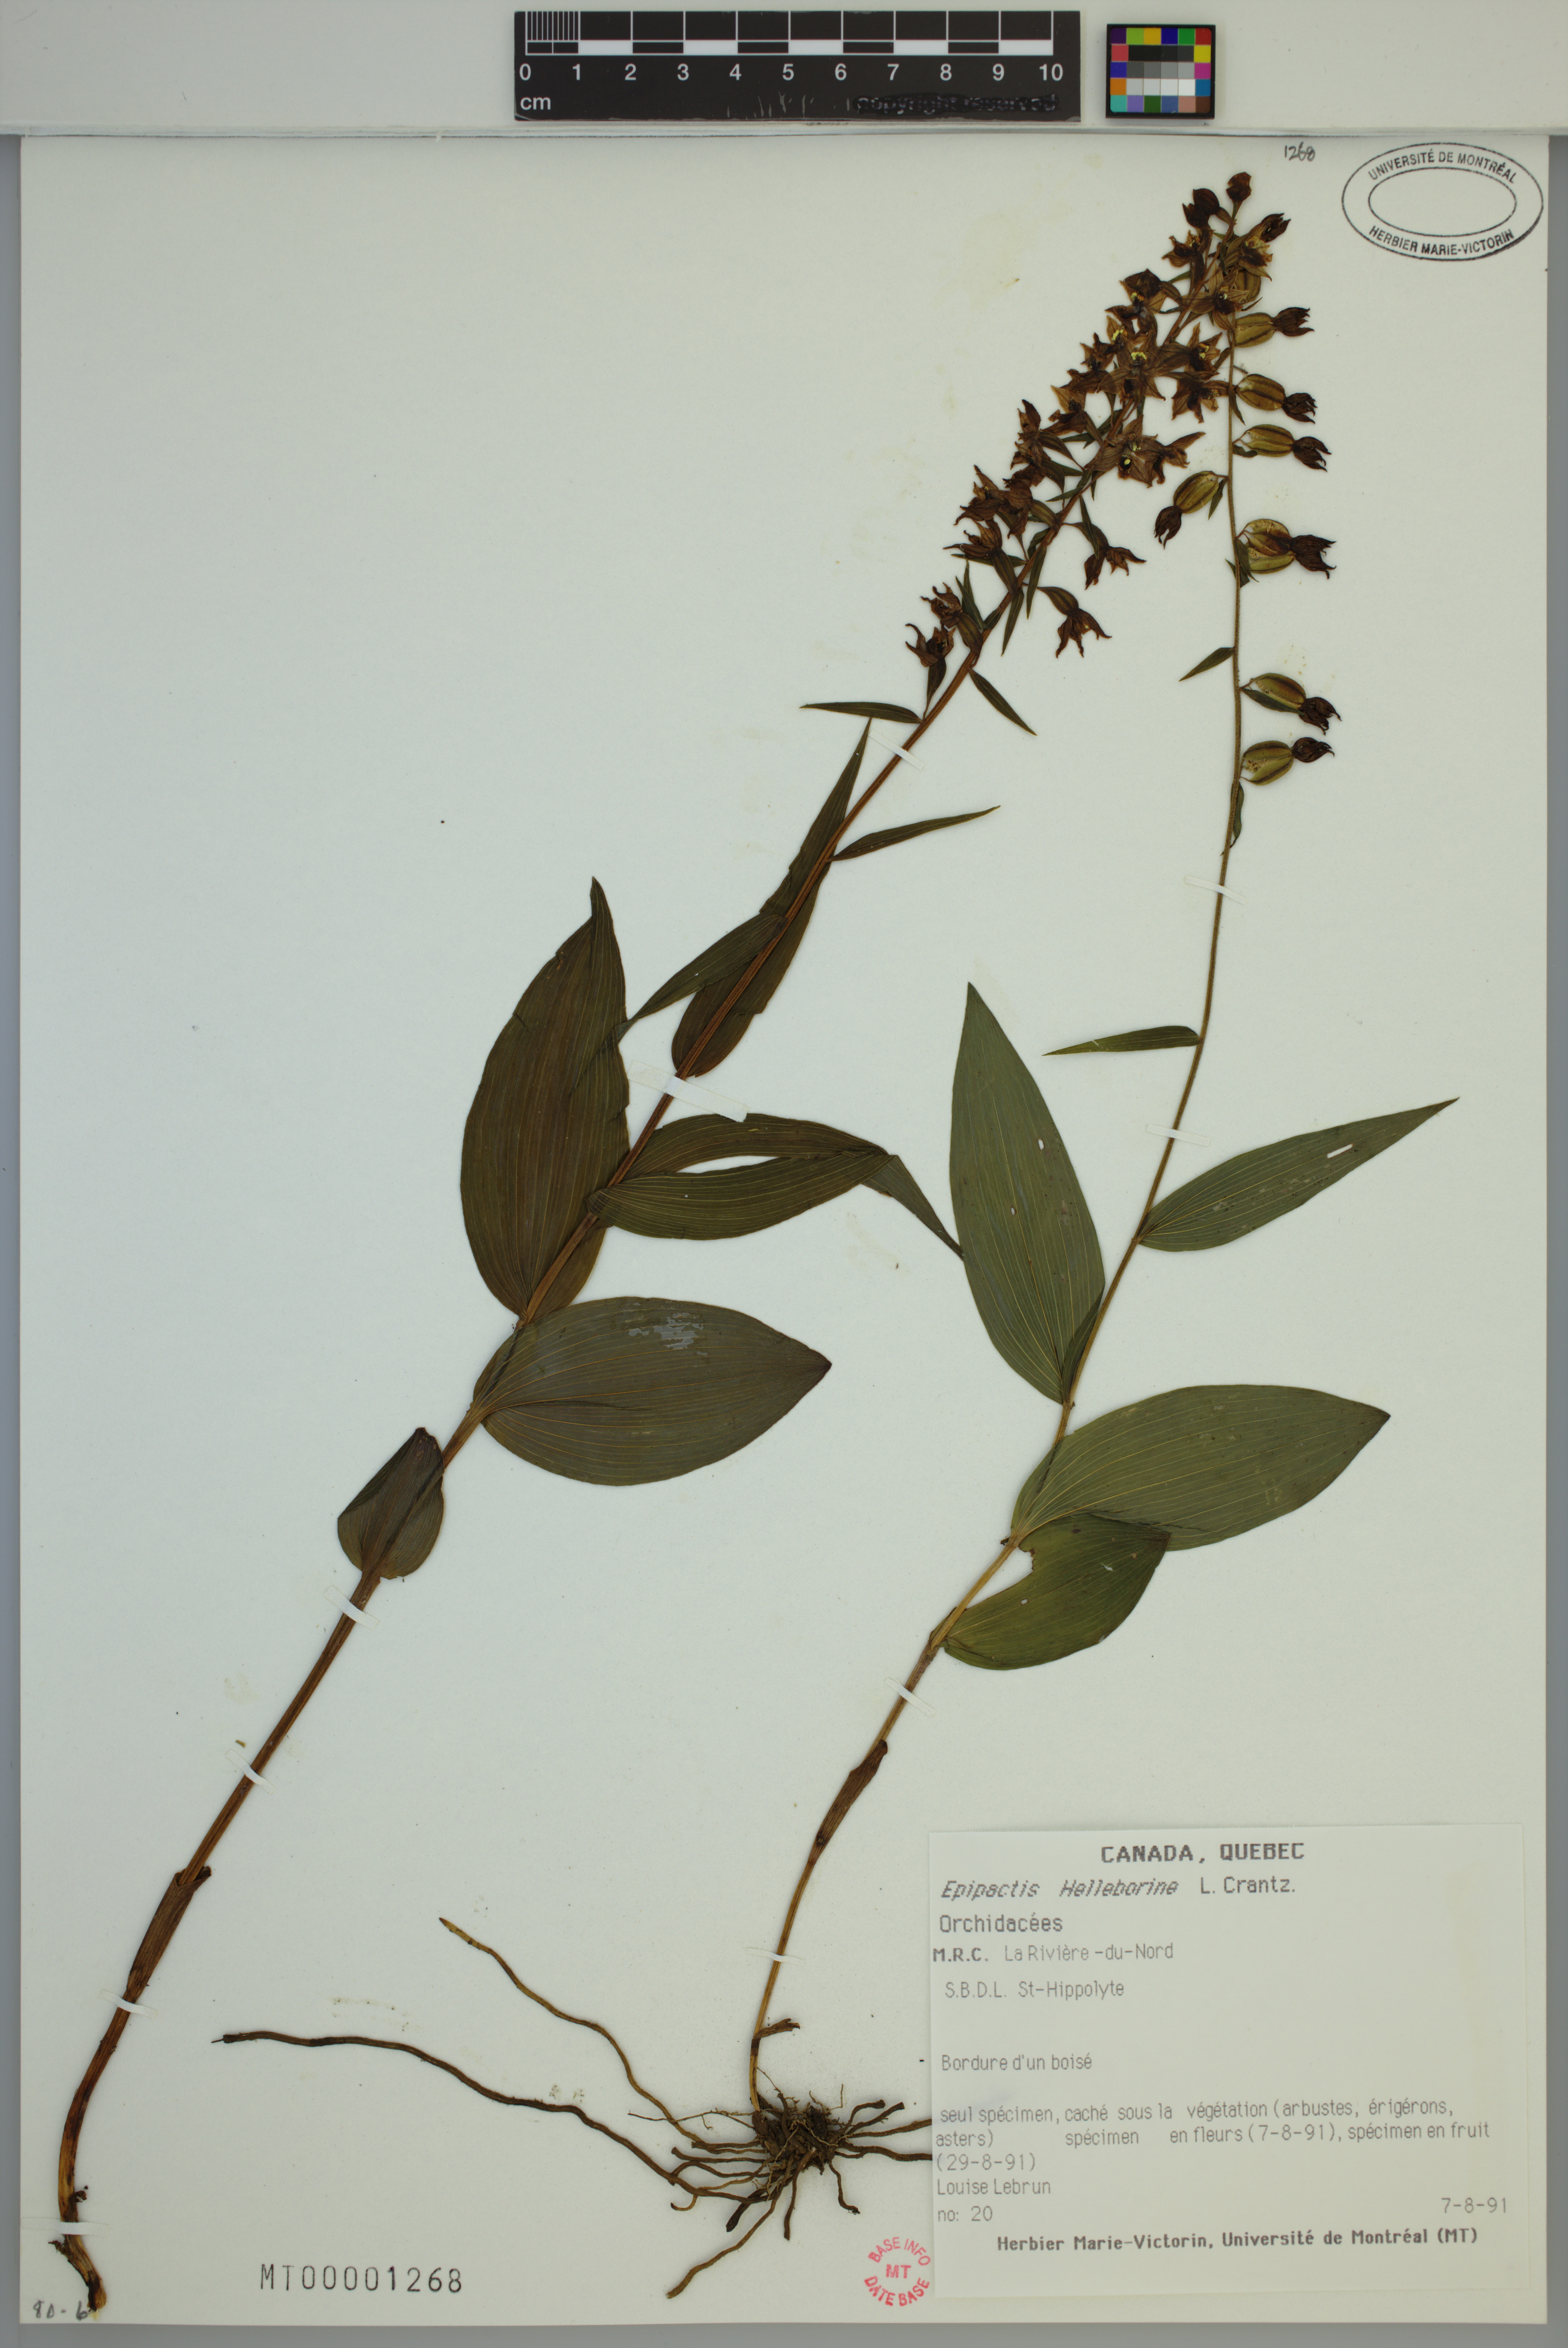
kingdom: Plantae
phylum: Tracheophyta
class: Liliopsida
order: Asparagales
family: Orchidaceae
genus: Epipactis
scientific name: Epipactis helleborine
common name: Broad-leaved helleborine
